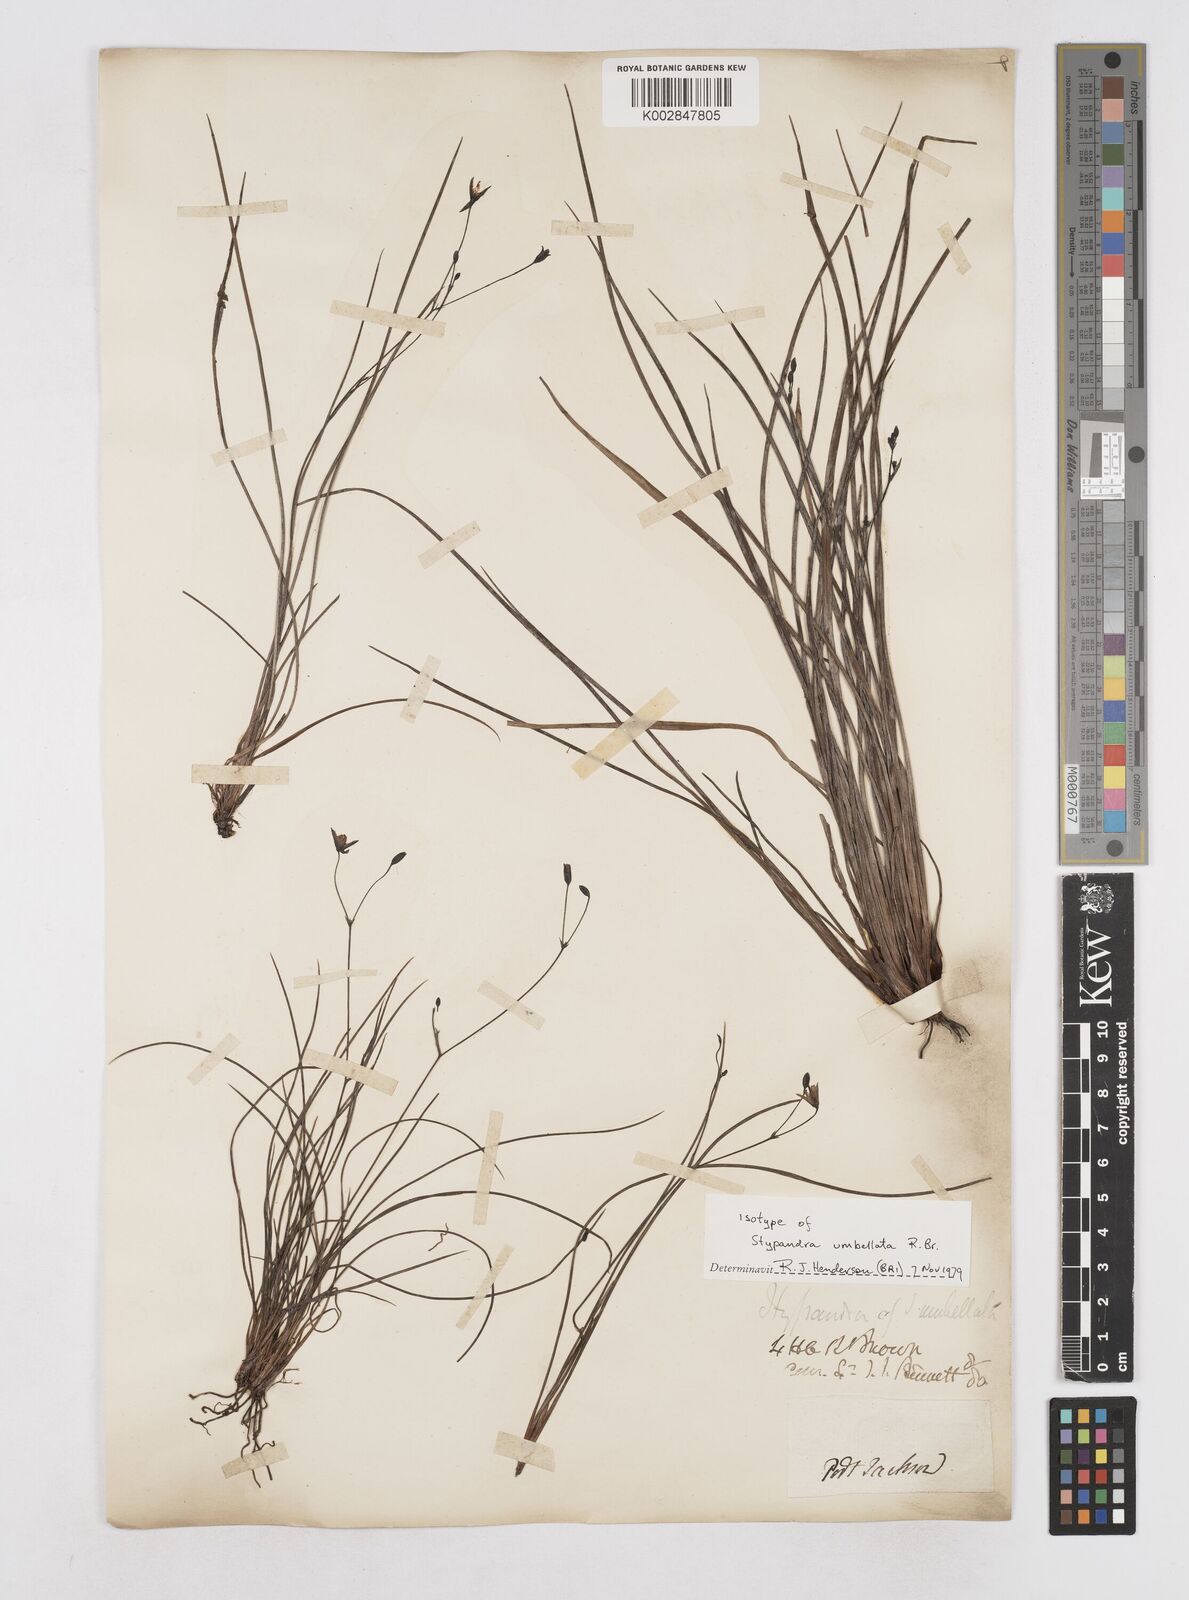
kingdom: Plantae
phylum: Tracheophyta
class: Liliopsida
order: Asparagales
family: Asphodelaceae
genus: Thelionema
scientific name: Thelionema umbellatum
